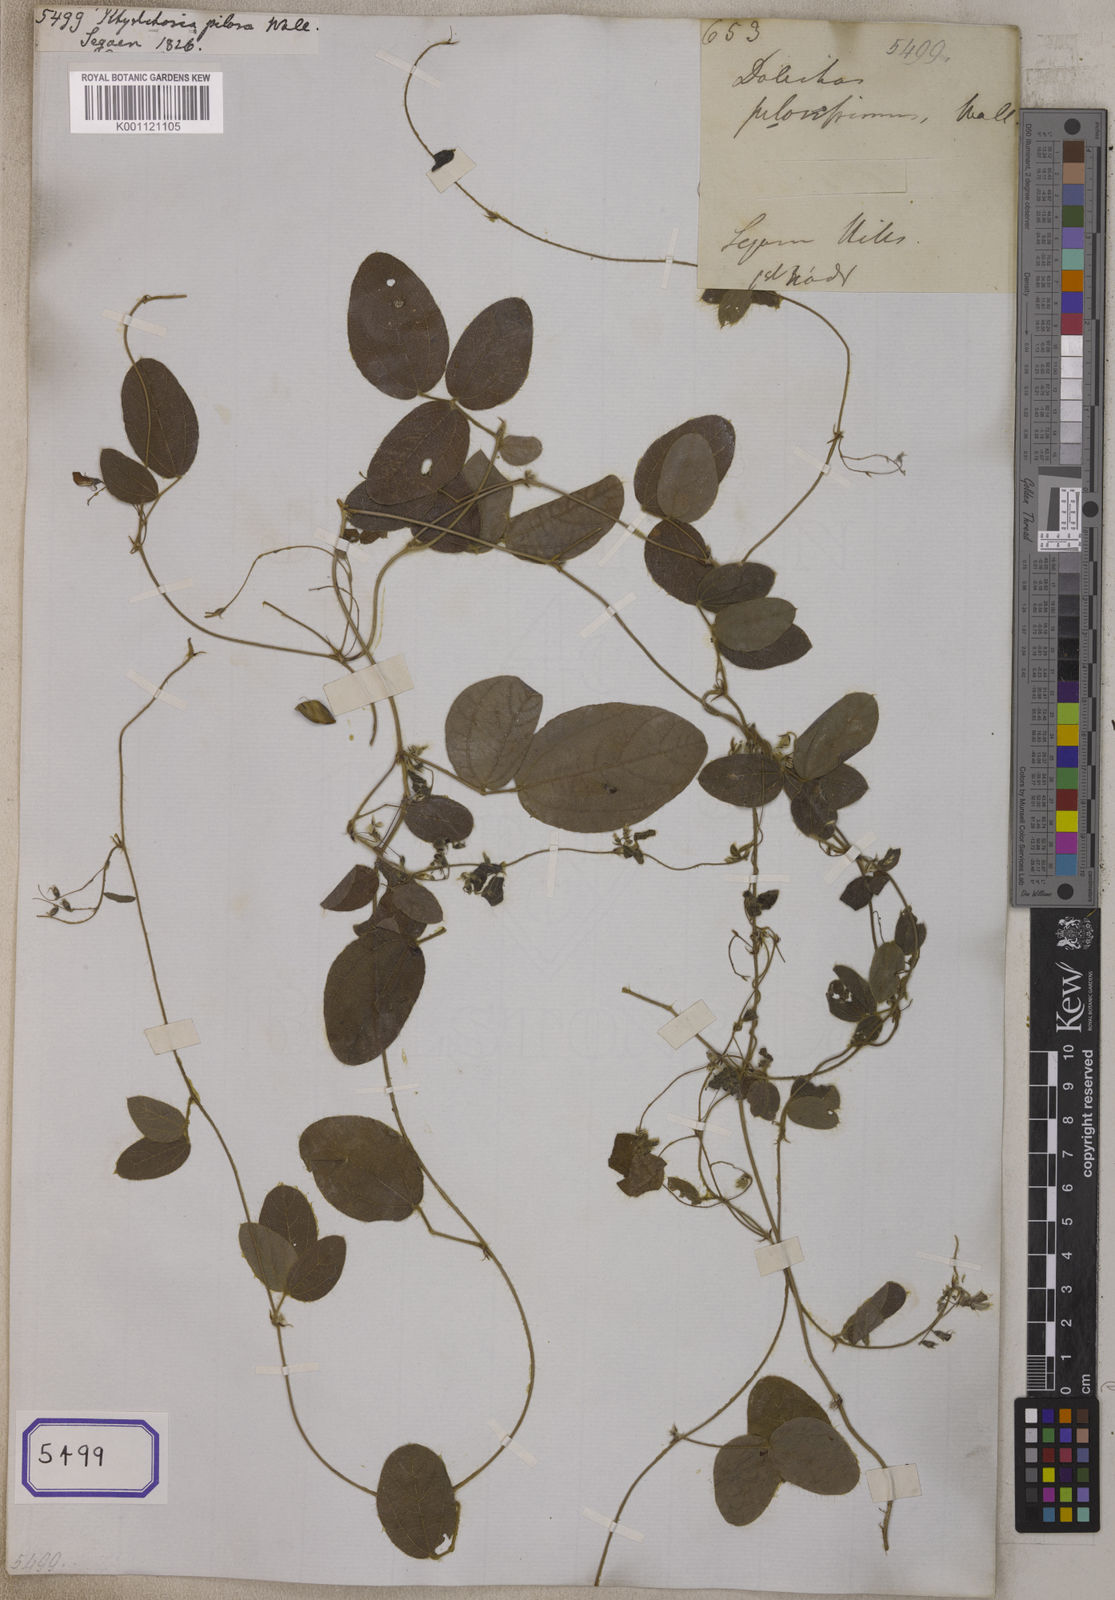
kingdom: Plantae
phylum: Tracheophyta
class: Magnoliopsida
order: Fabales
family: Fabaceae
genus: Pseudarthria
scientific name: Pseudarthria viscida
